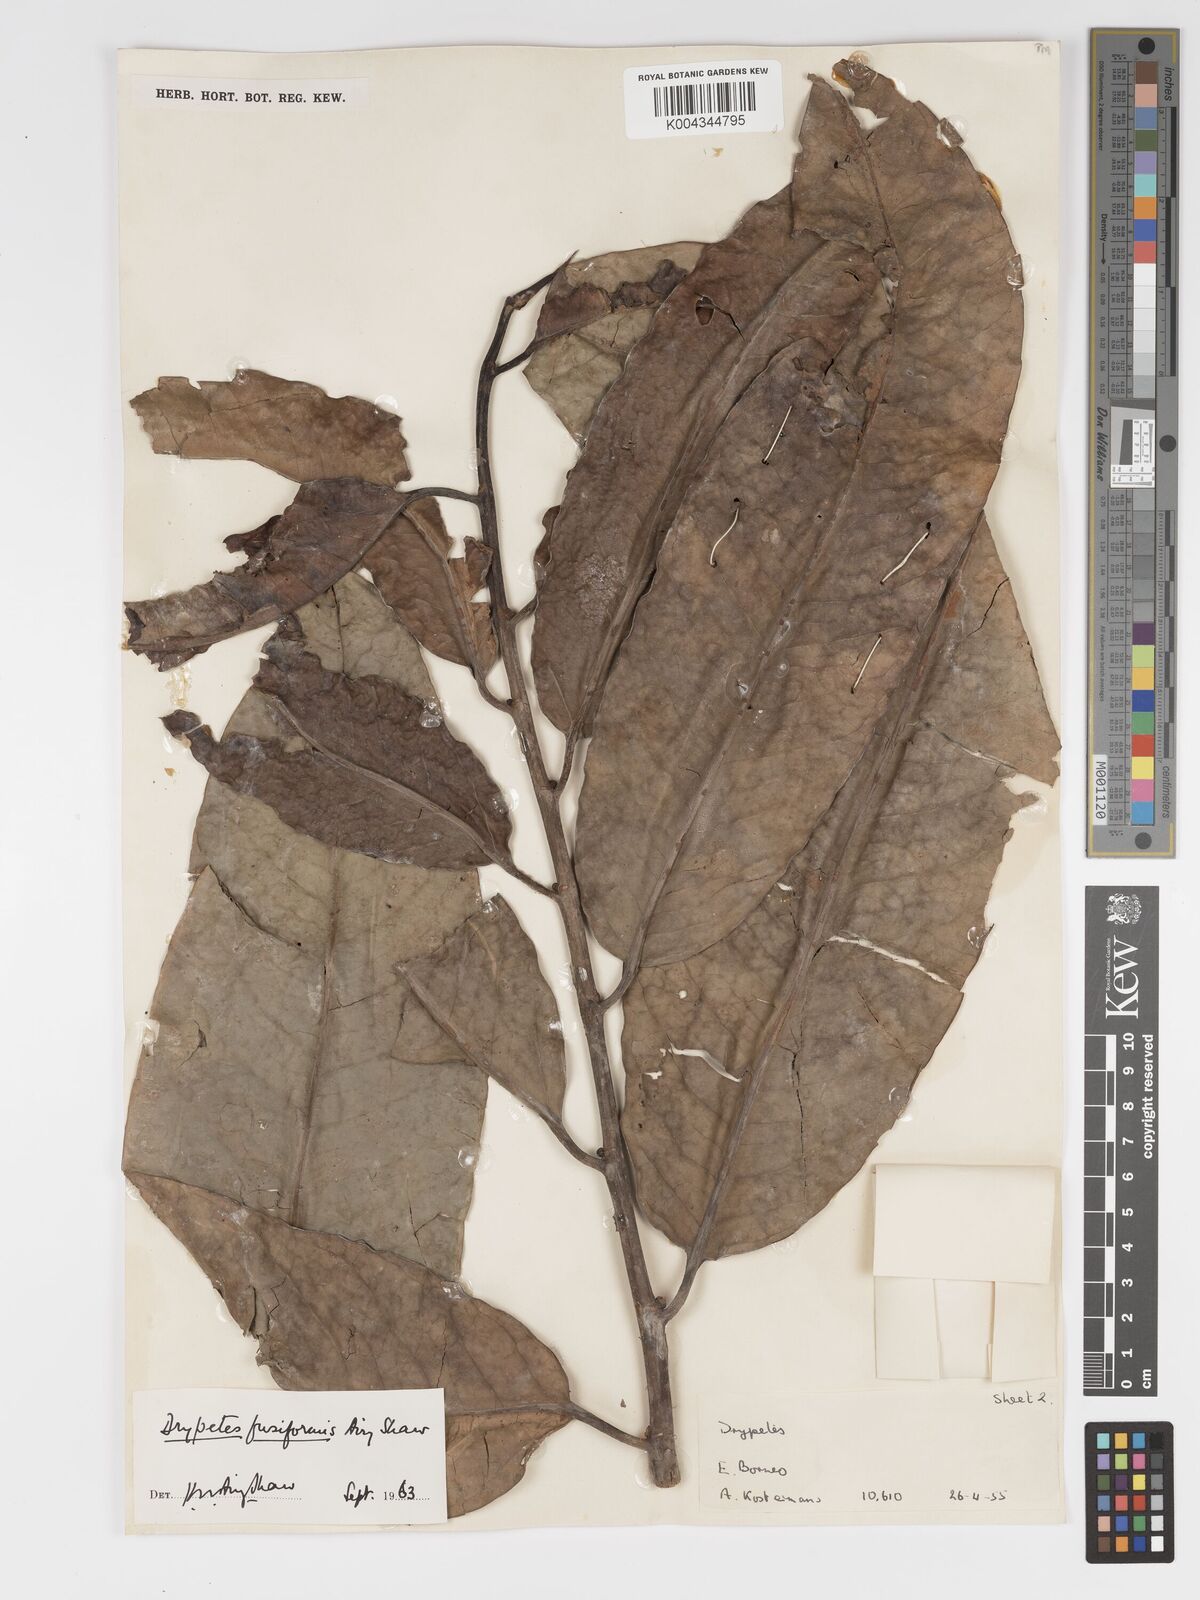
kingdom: Plantae
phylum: Tracheophyta
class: Magnoliopsida
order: Malpighiales
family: Putranjivaceae
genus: Drypetes
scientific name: Drypetes fusiformis
